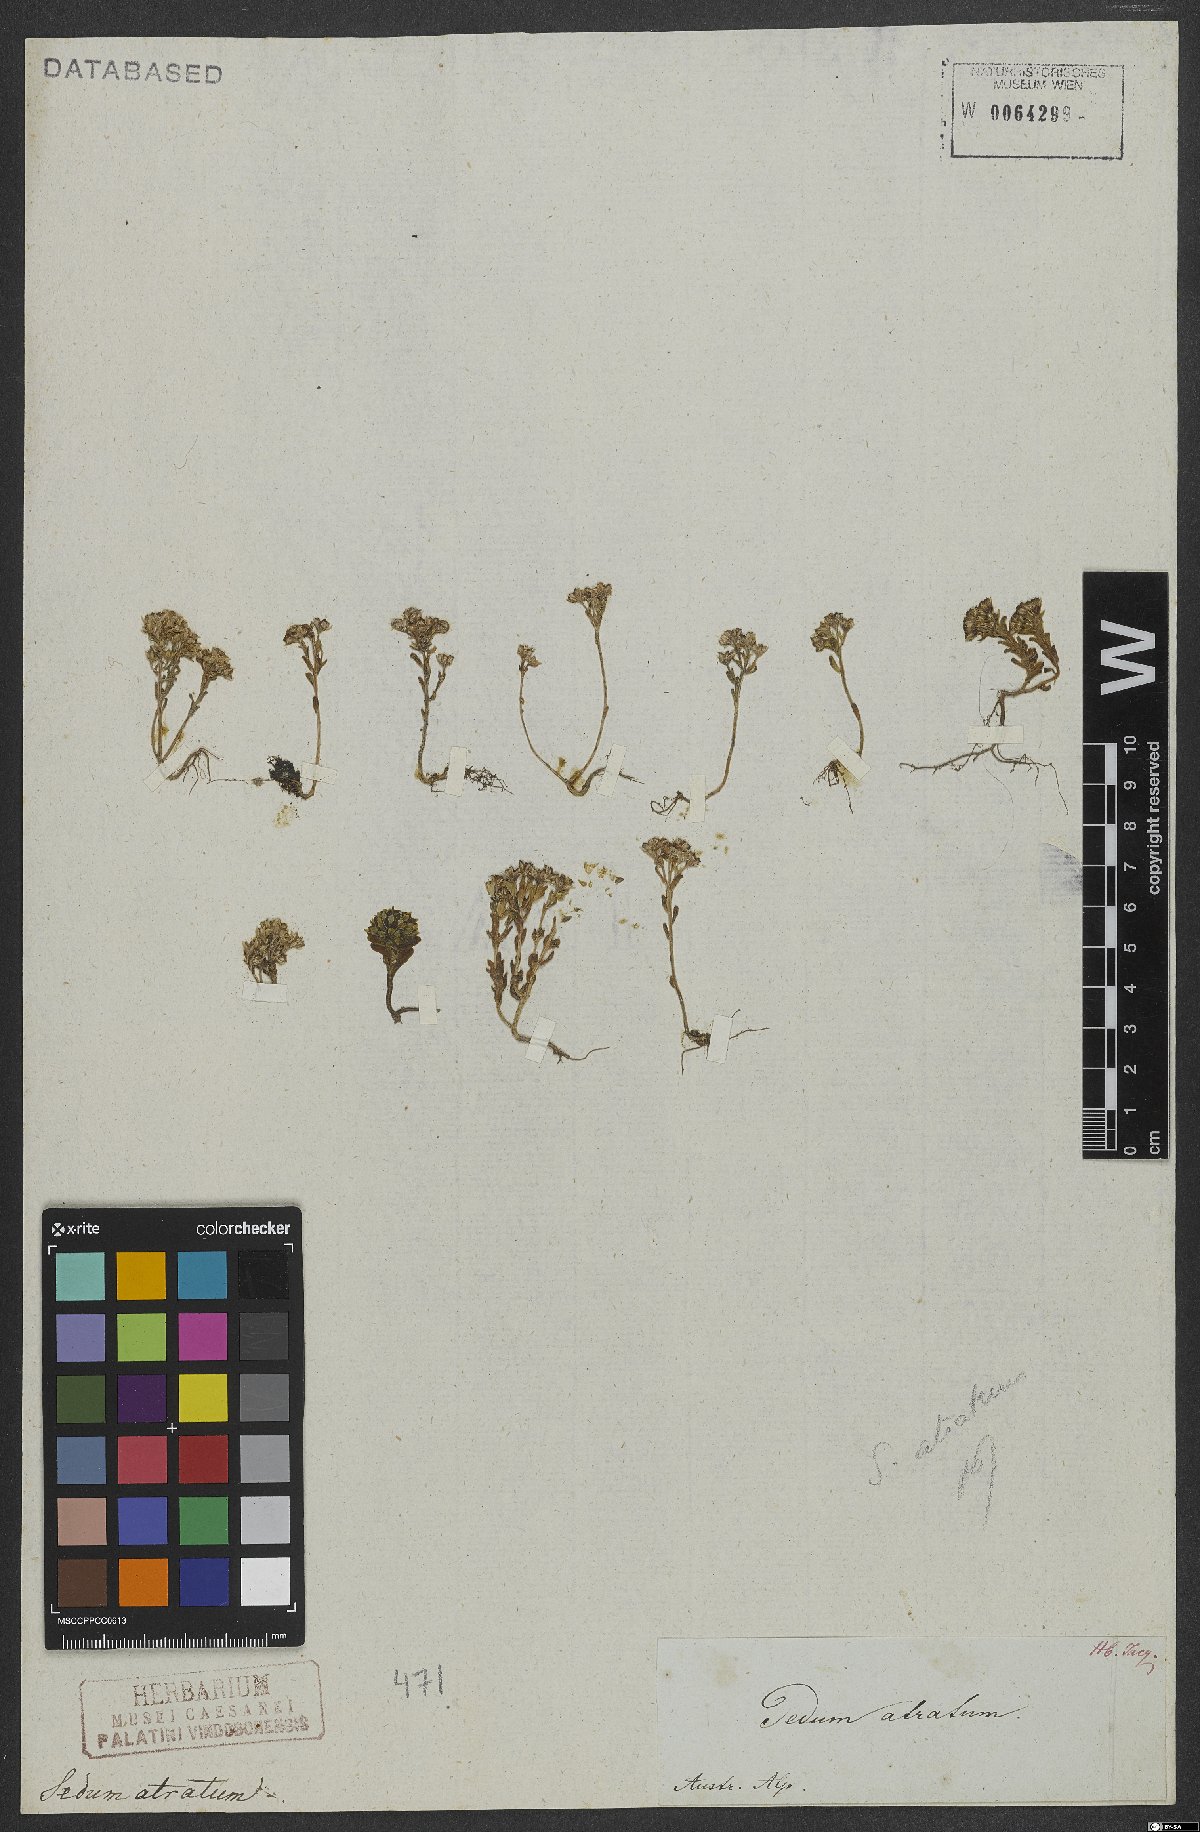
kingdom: Plantae
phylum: Tracheophyta
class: Magnoliopsida
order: Saxifragales
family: Crassulaceae
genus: Sedum
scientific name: Sedum atratum
